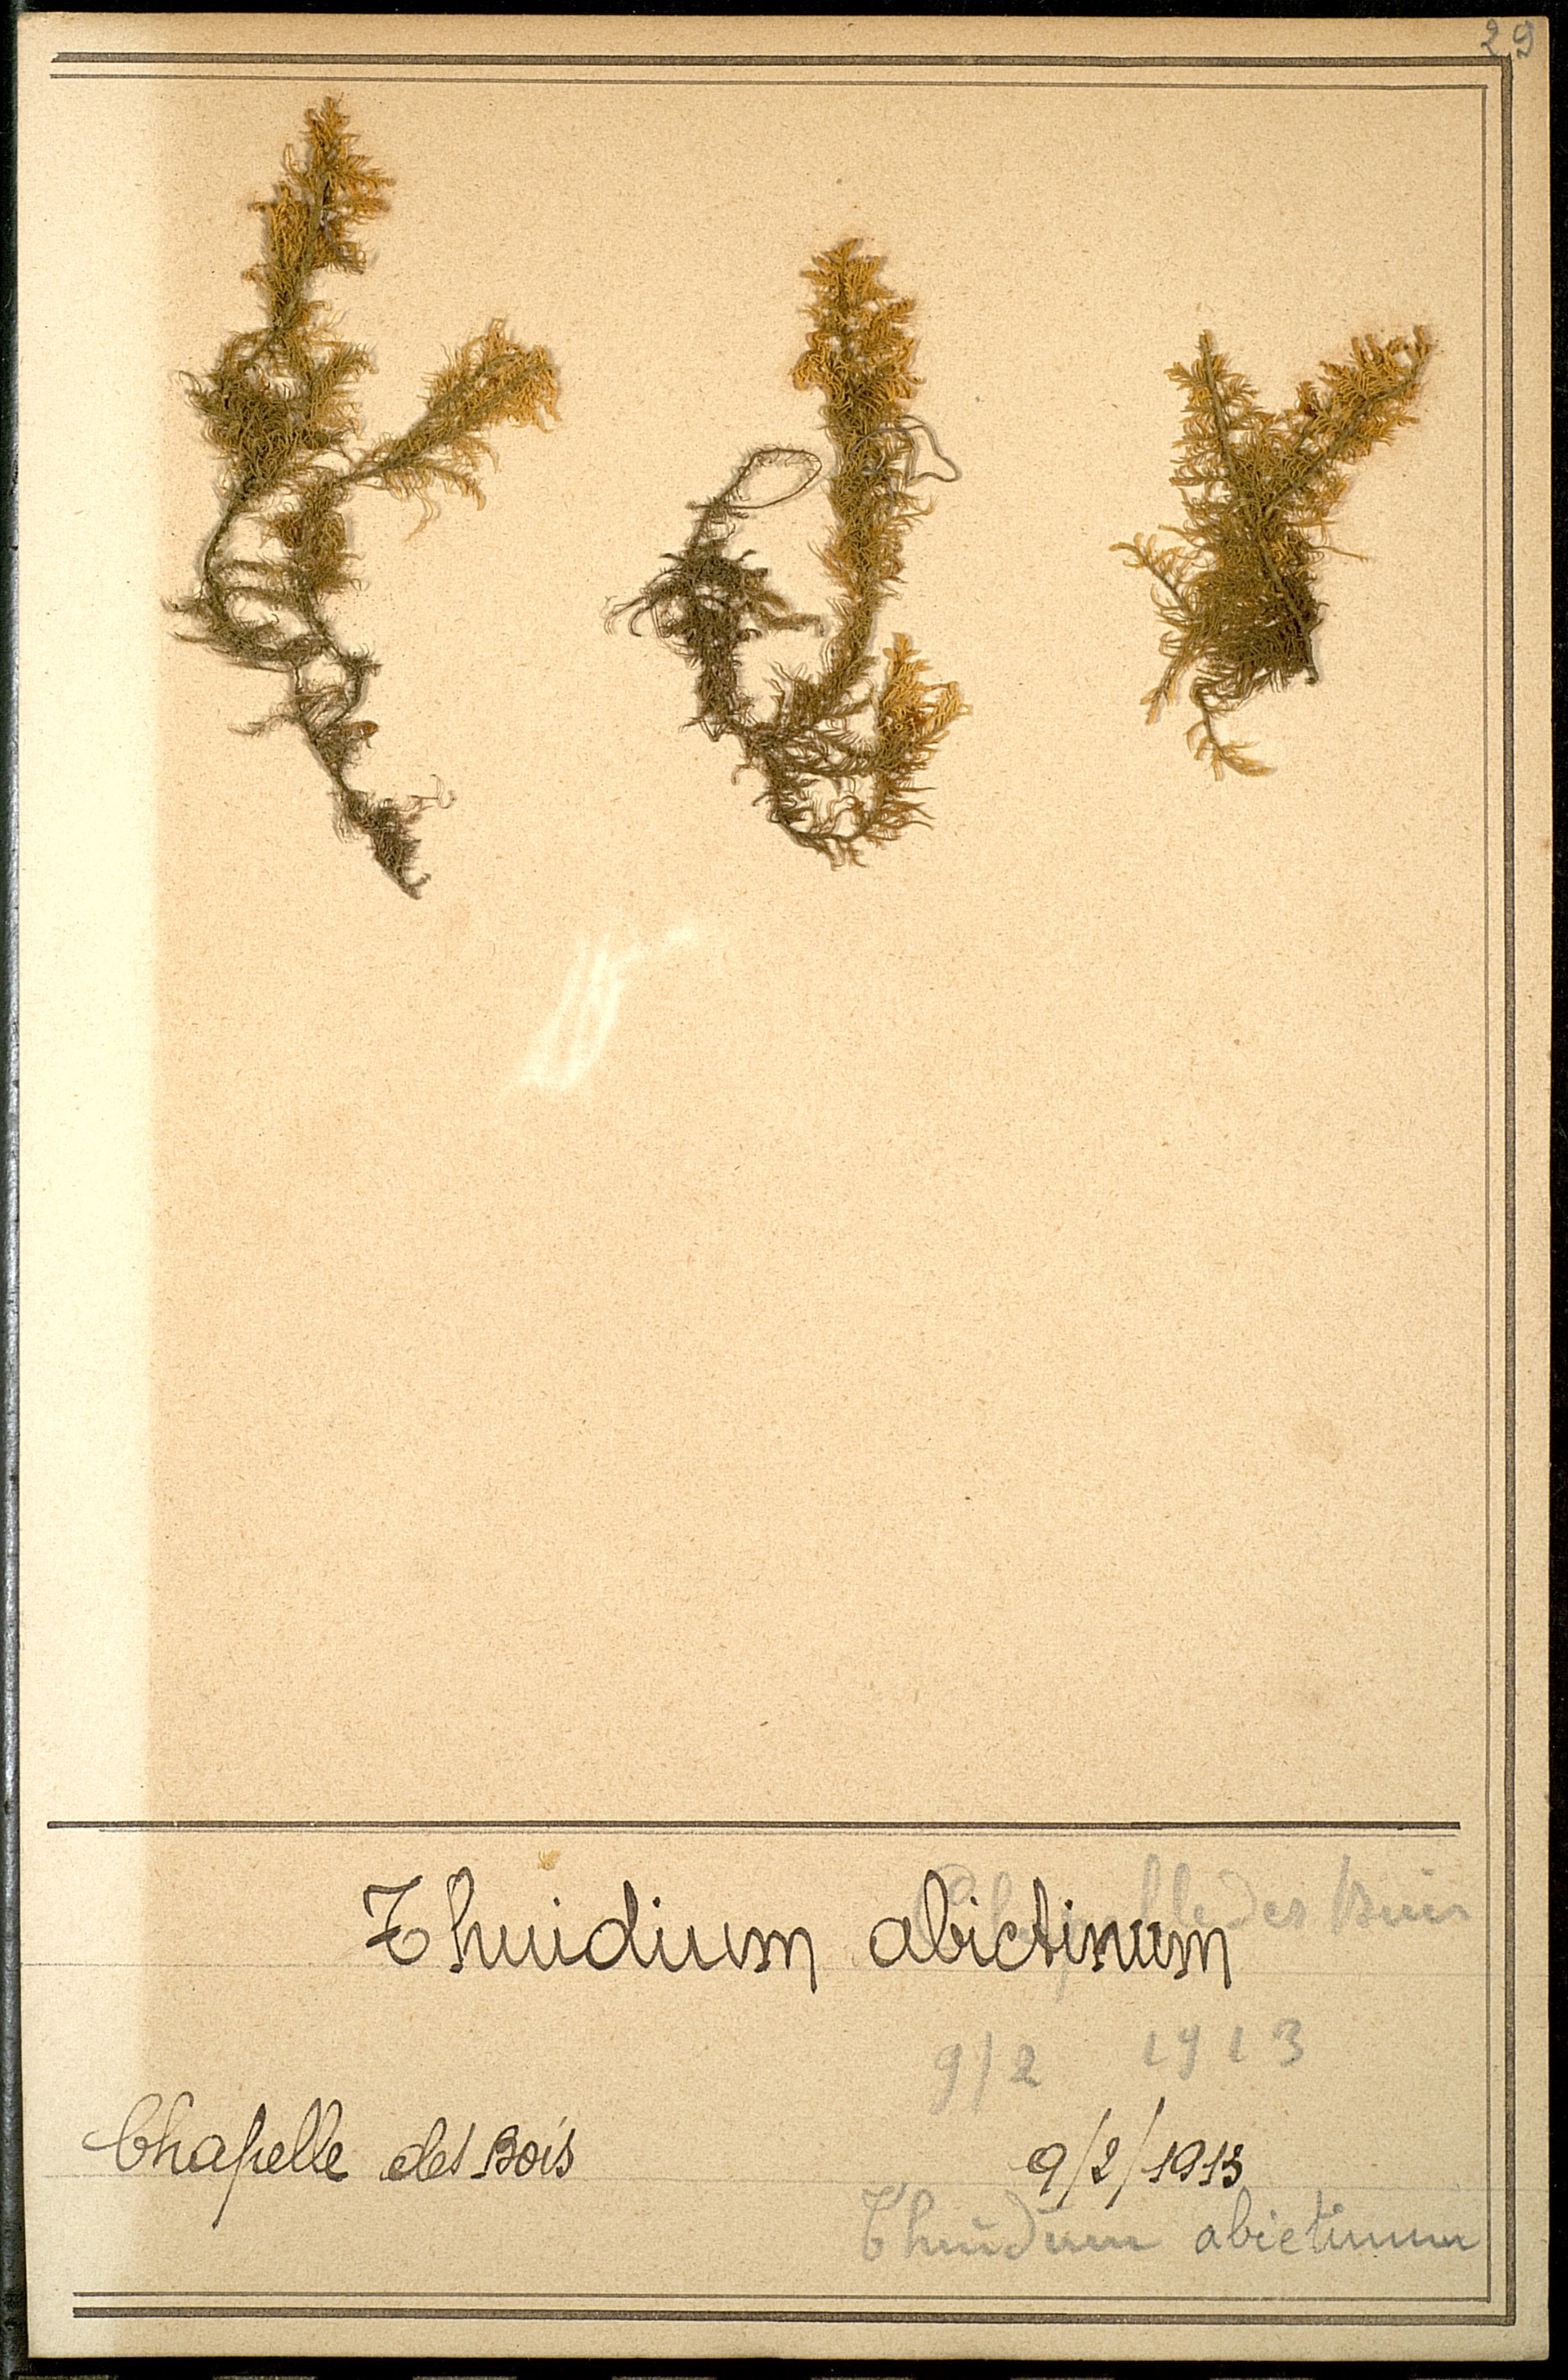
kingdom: Plantae
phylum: Bryophyta
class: Bryopsida
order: Hypnales
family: Thuidiaceae
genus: Abietinella
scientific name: Abietinella abietina
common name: Wiry fern moss
